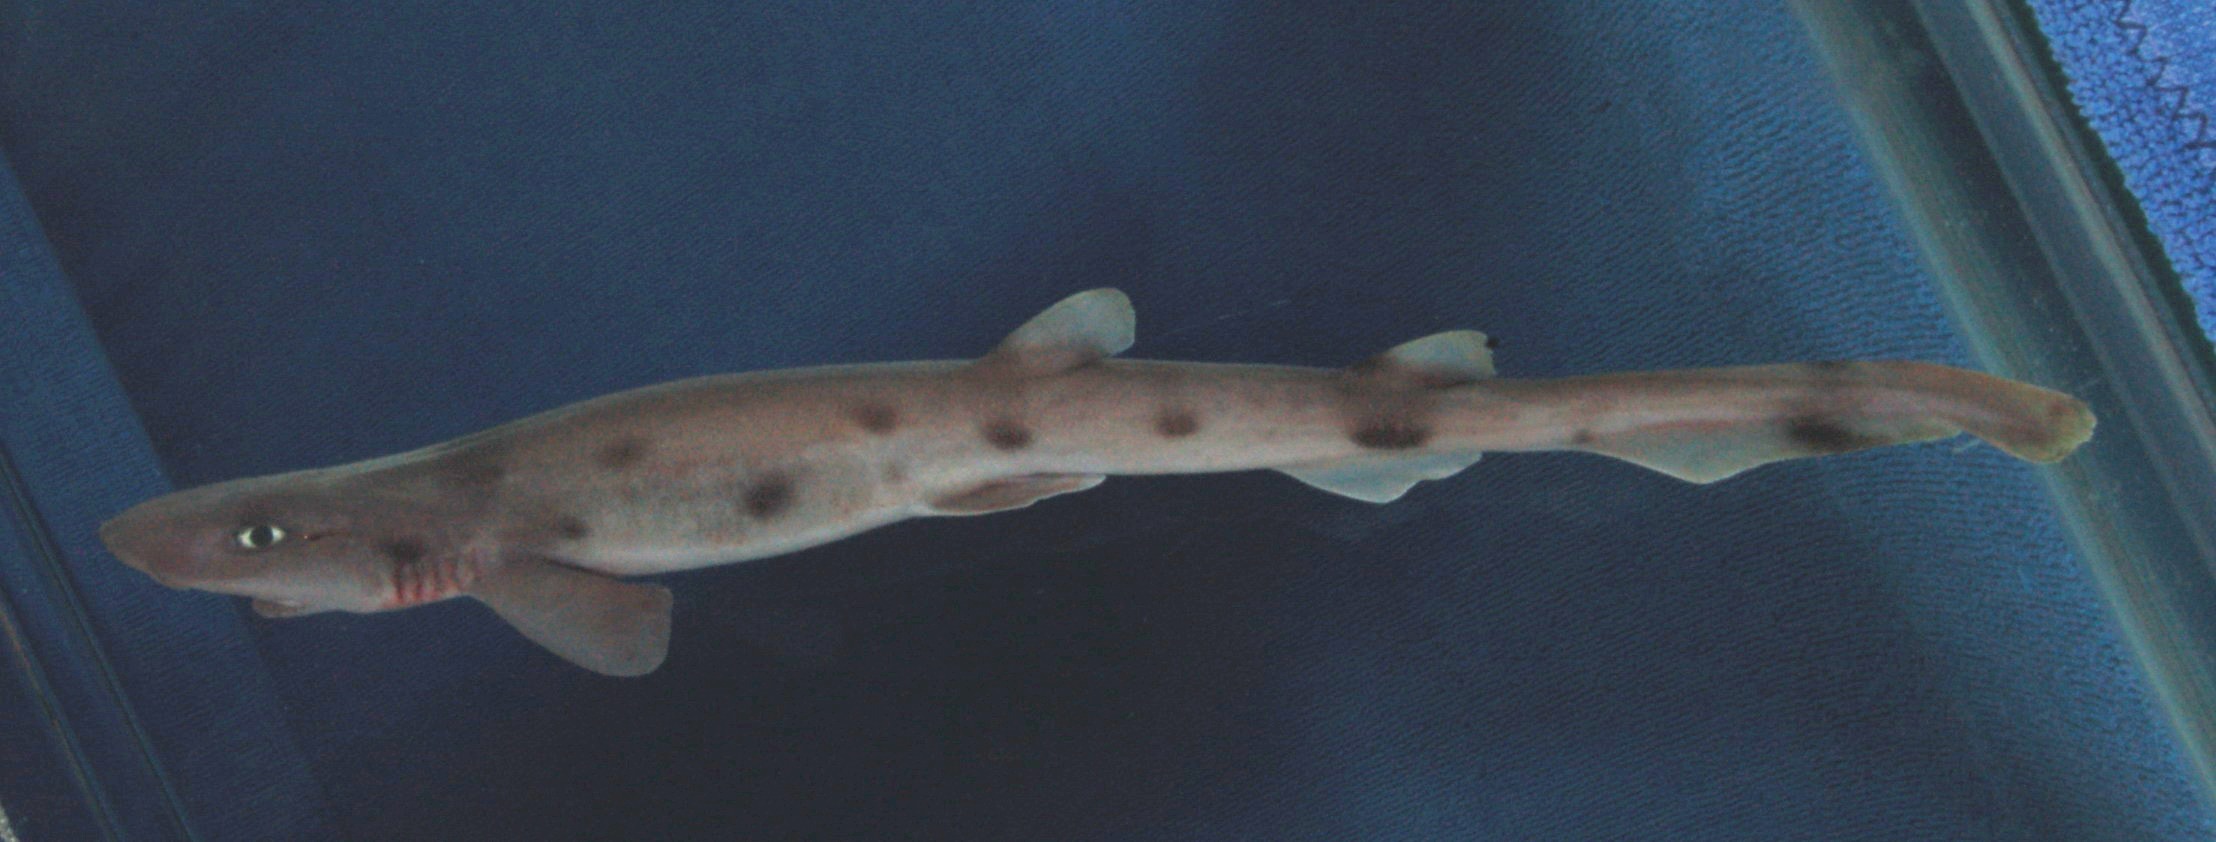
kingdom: Animalia
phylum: Chordata
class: Elasmobranchii
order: Carcharhiniformes
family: Scyliorhinidae
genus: Bythaelurus
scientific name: Bythaelurus clevai
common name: Broadhead cat shark
